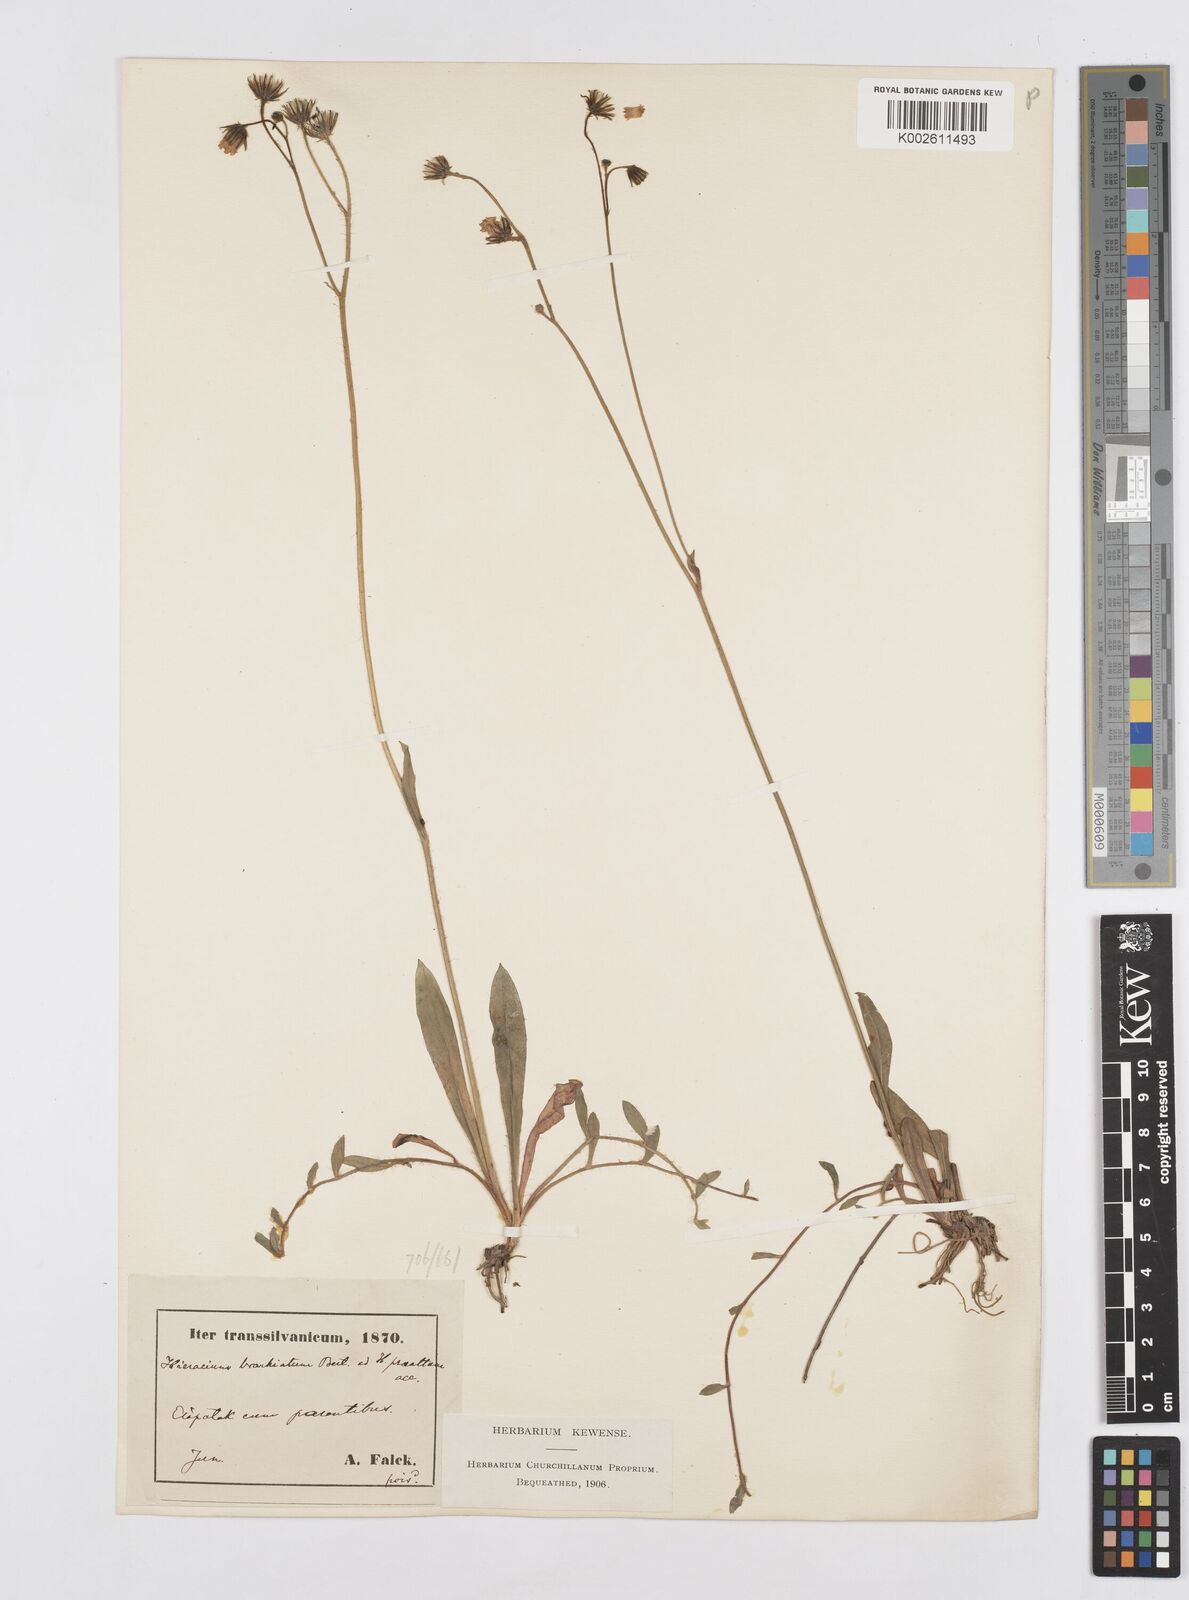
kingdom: Plantae
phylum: Tracheophyta
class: Magnoliopsida
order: Asterales
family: Asteraceae
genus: Pilosella
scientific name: Pilosella acutifolia
